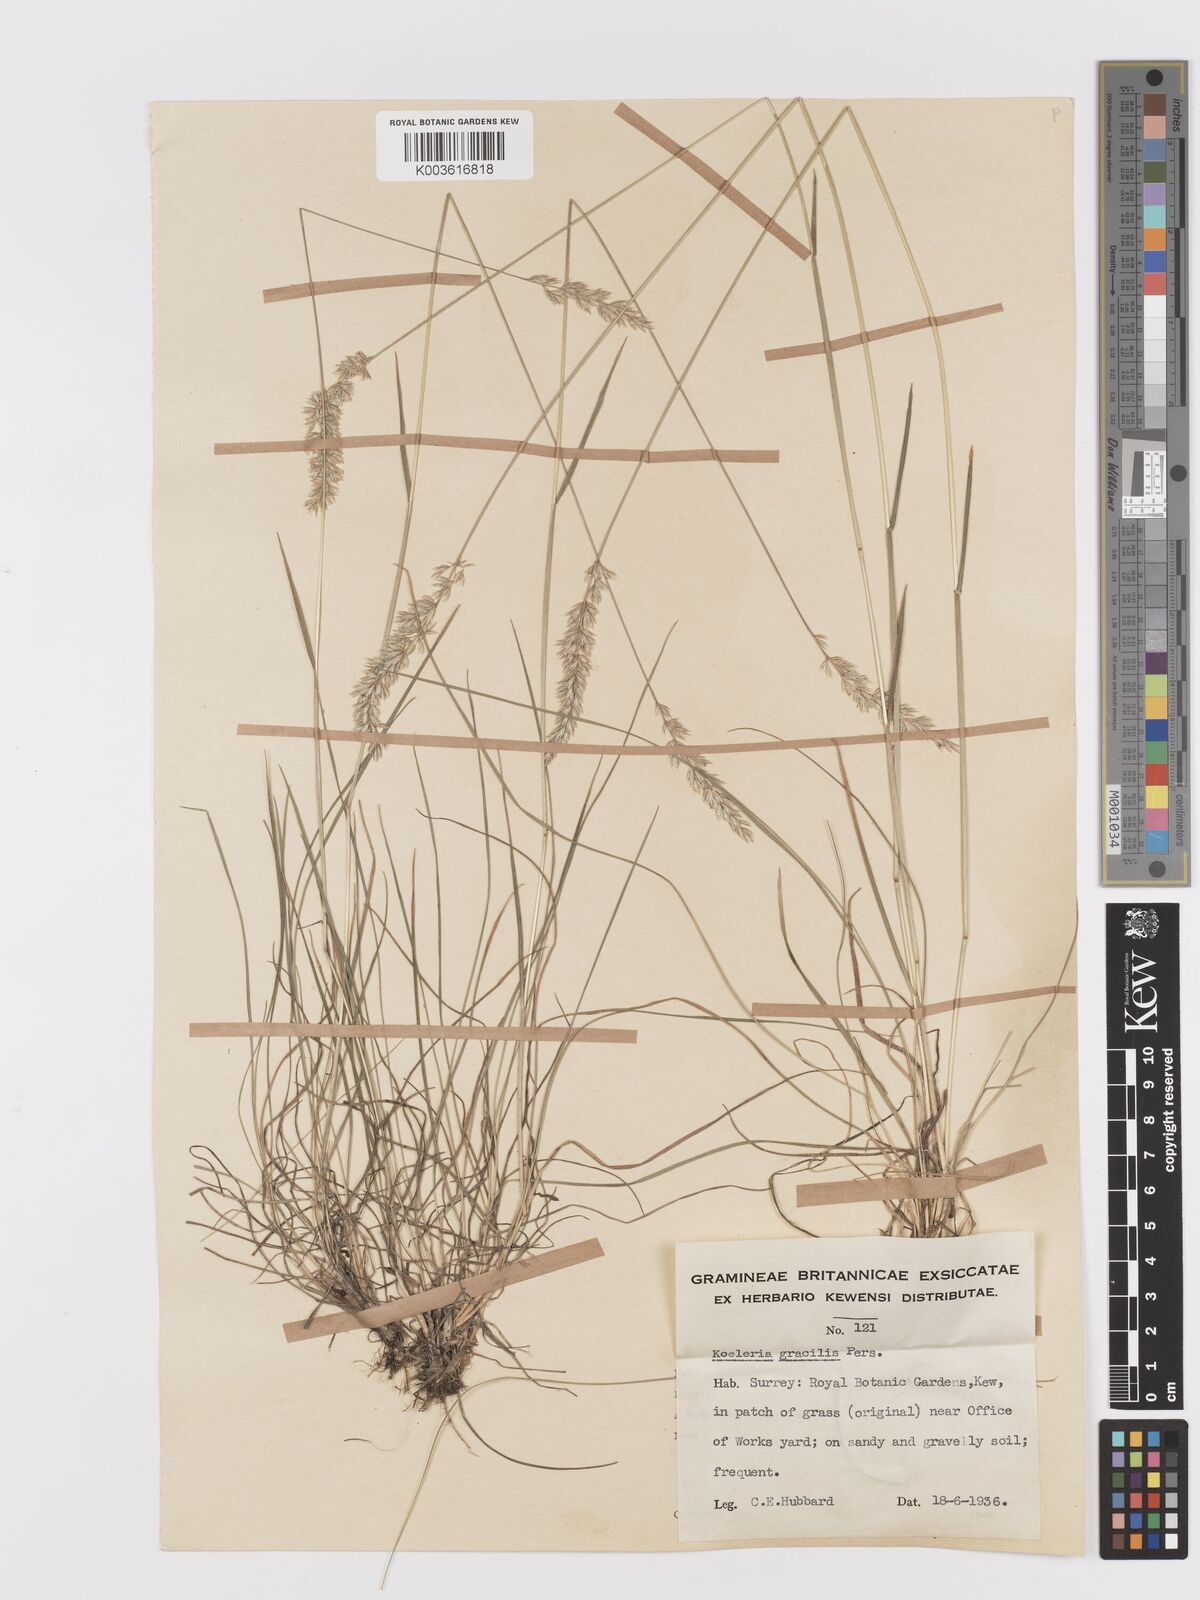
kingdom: Plantae
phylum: Tracheophyta
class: Liliopsida
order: Poales
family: Poaceae
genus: Koeleria
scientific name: Koeleria macrantha
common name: Crested hair-grass
